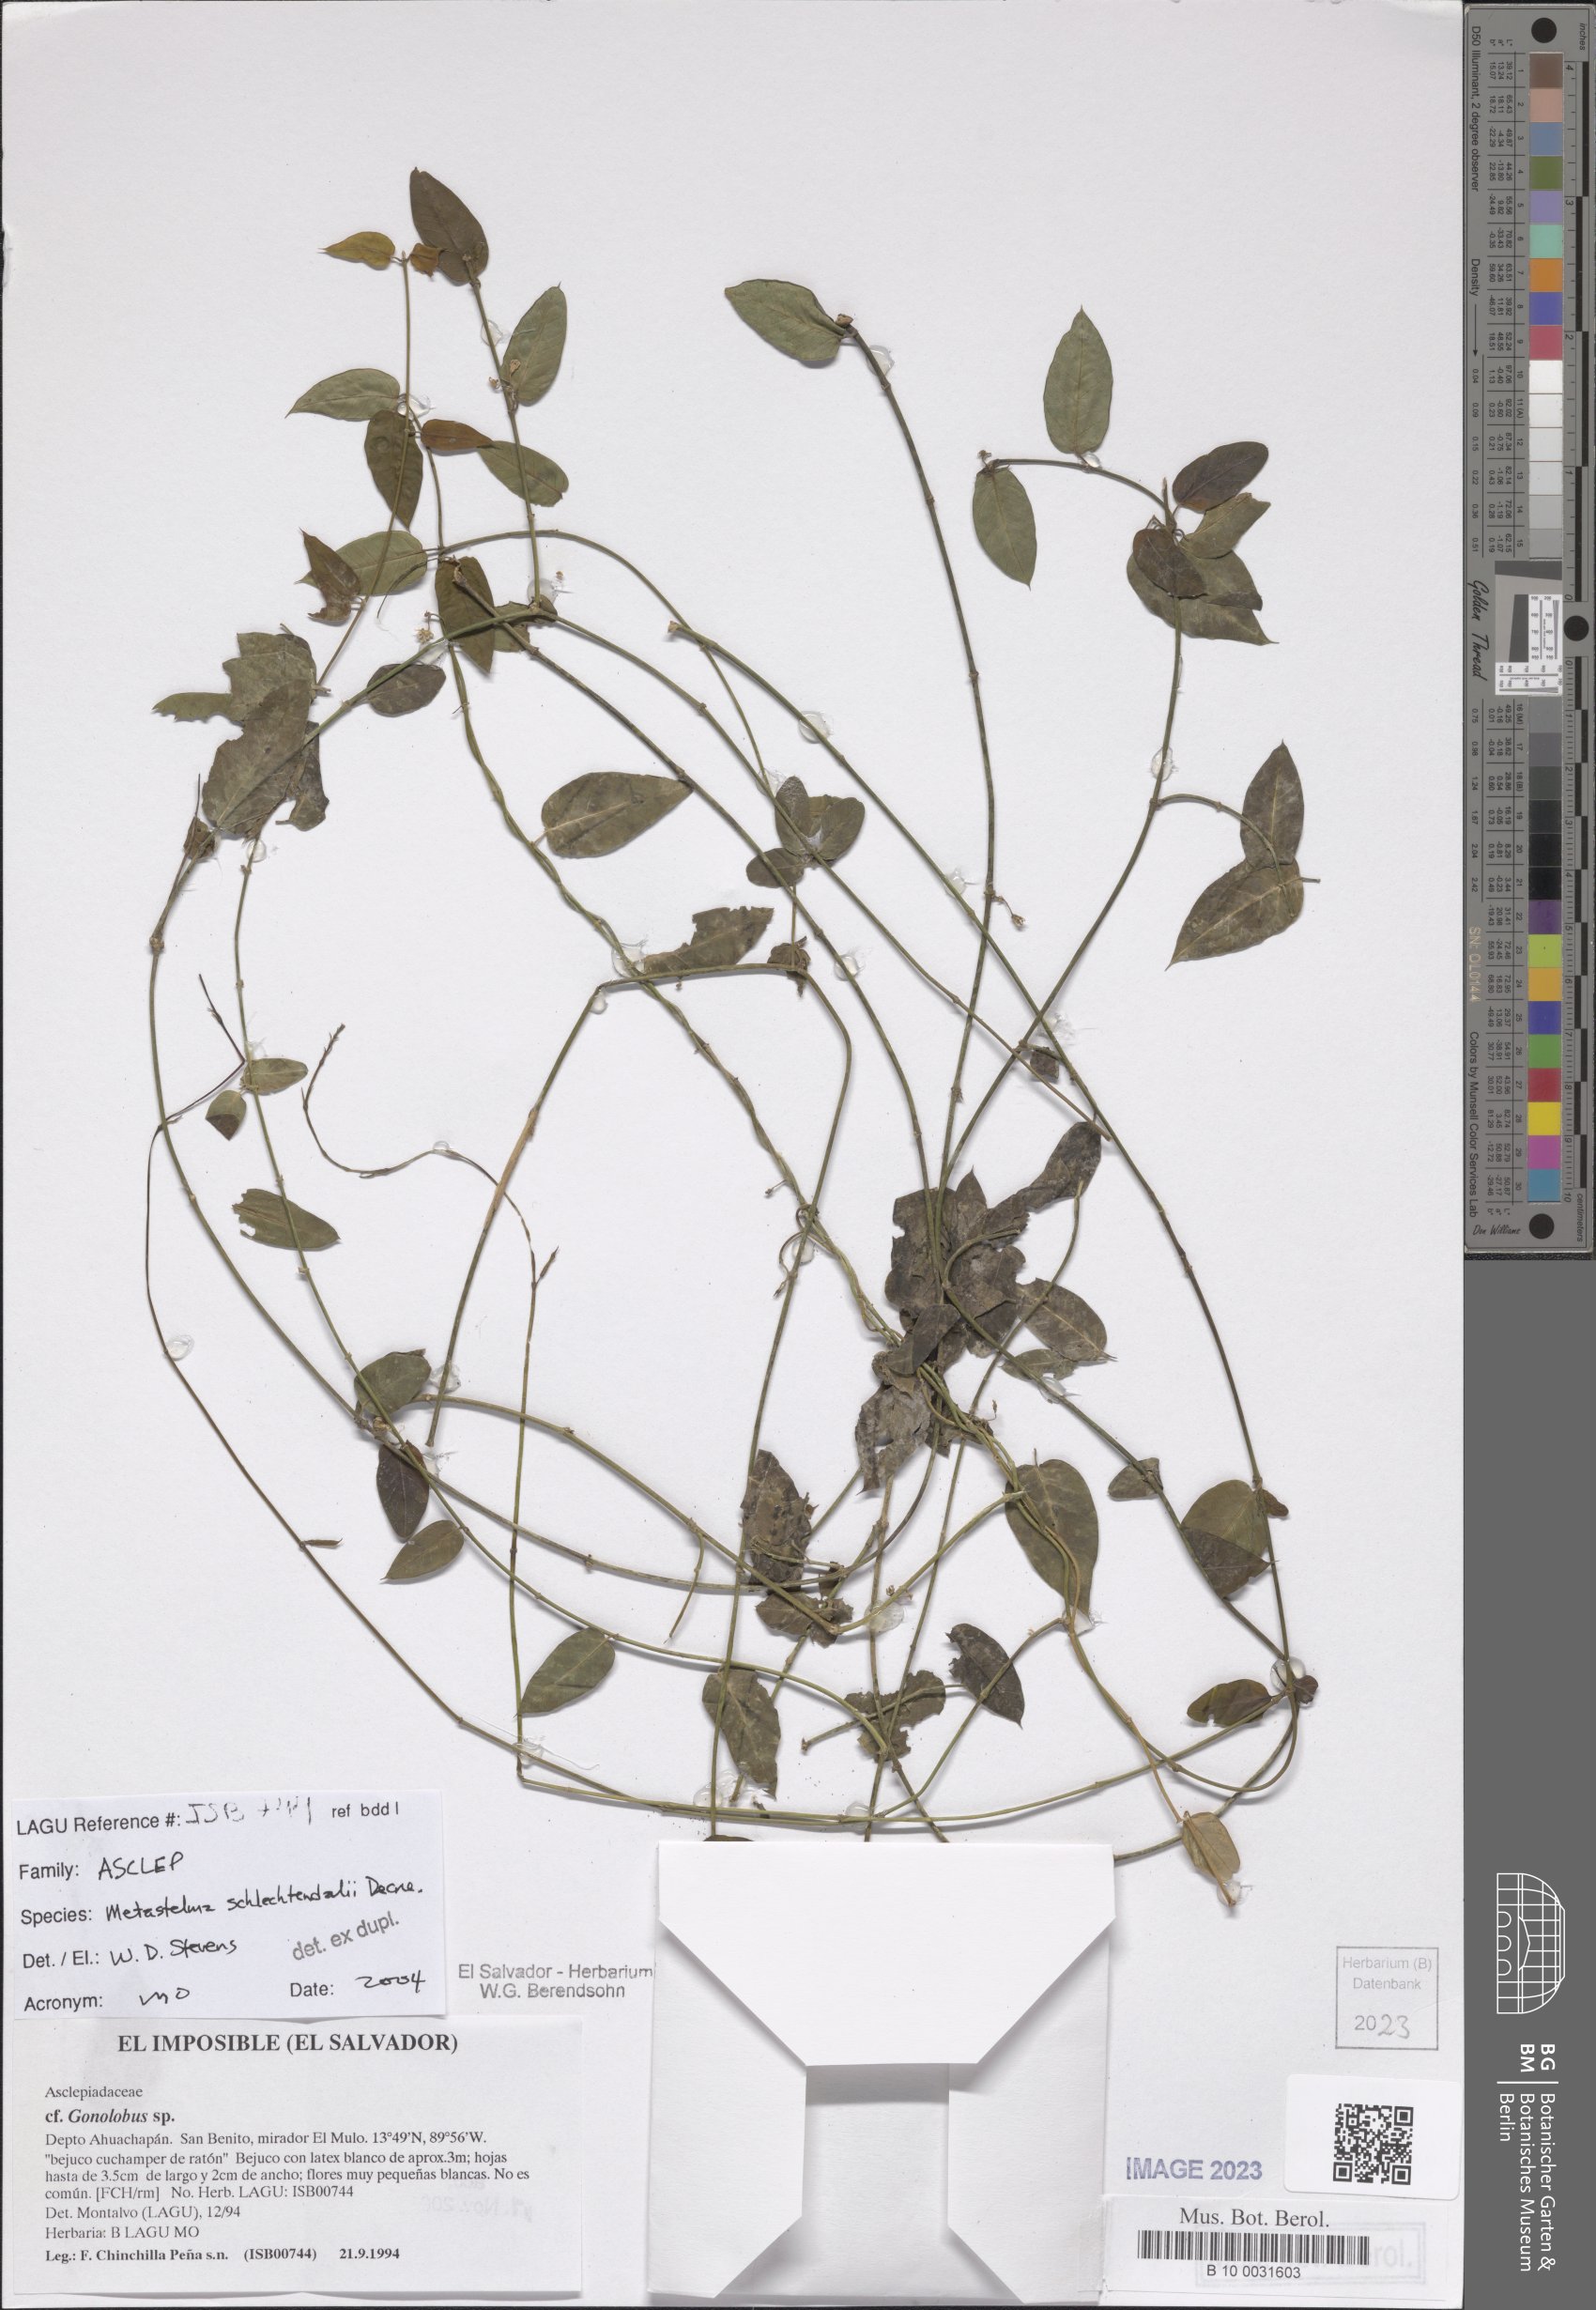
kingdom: Plantae
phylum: Tracheophyta
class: Magnoliopsida
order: Gentianales
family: Apocynaceae
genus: Metastelma
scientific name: Metastelma schlechtendalii
